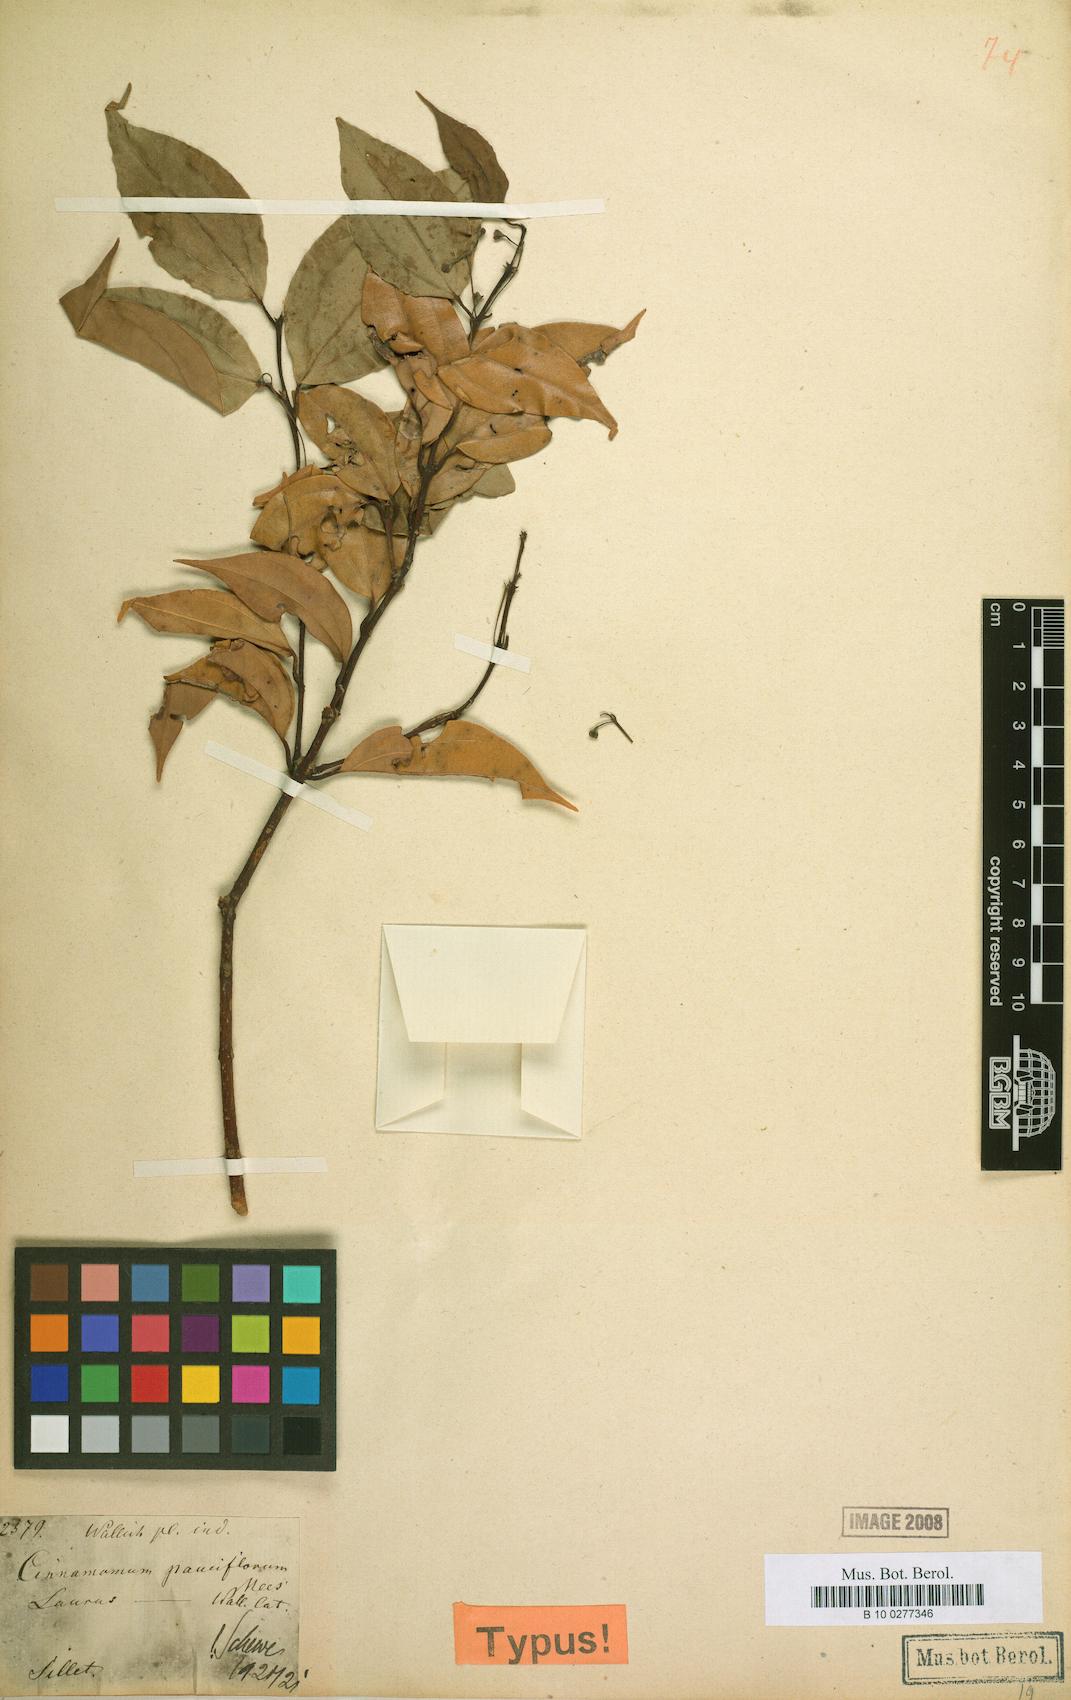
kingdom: Plantae
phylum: Tracheophyta
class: Magnoliopsida
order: Laurales
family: Lauraceae
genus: Cinnamomum
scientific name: Cinnamomum tazia
